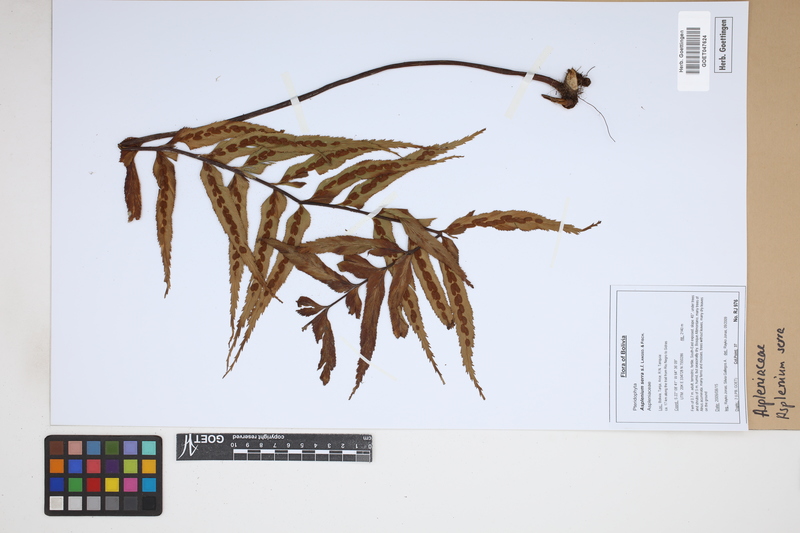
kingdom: Plantae
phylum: Tracheophyta
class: Polypodiopsida
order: Polypodiales
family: Aspleniaceae
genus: Asplenium
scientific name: Asplenium serra
